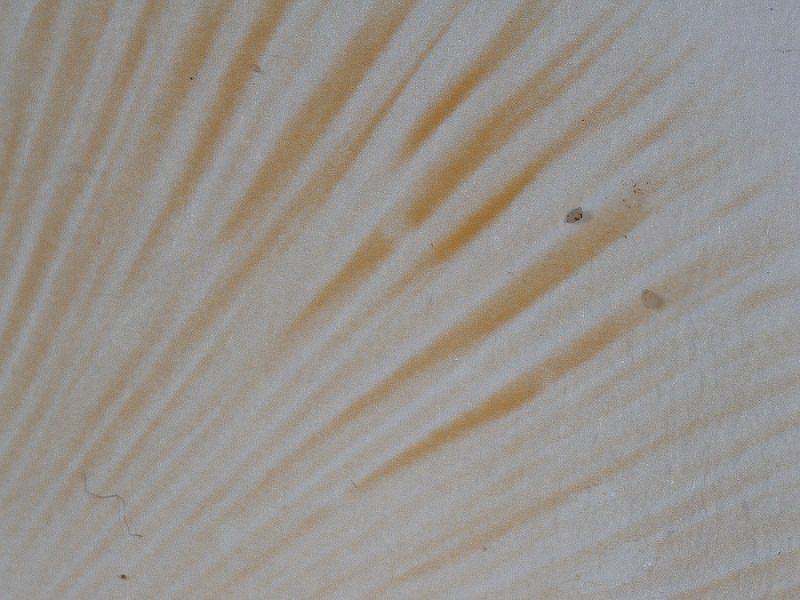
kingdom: Fungi
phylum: Basidiomycota
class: Agaricomycetes
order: Russulales
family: Russulaceae
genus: Russula
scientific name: Russula cessans
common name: fyrre-skørhat
